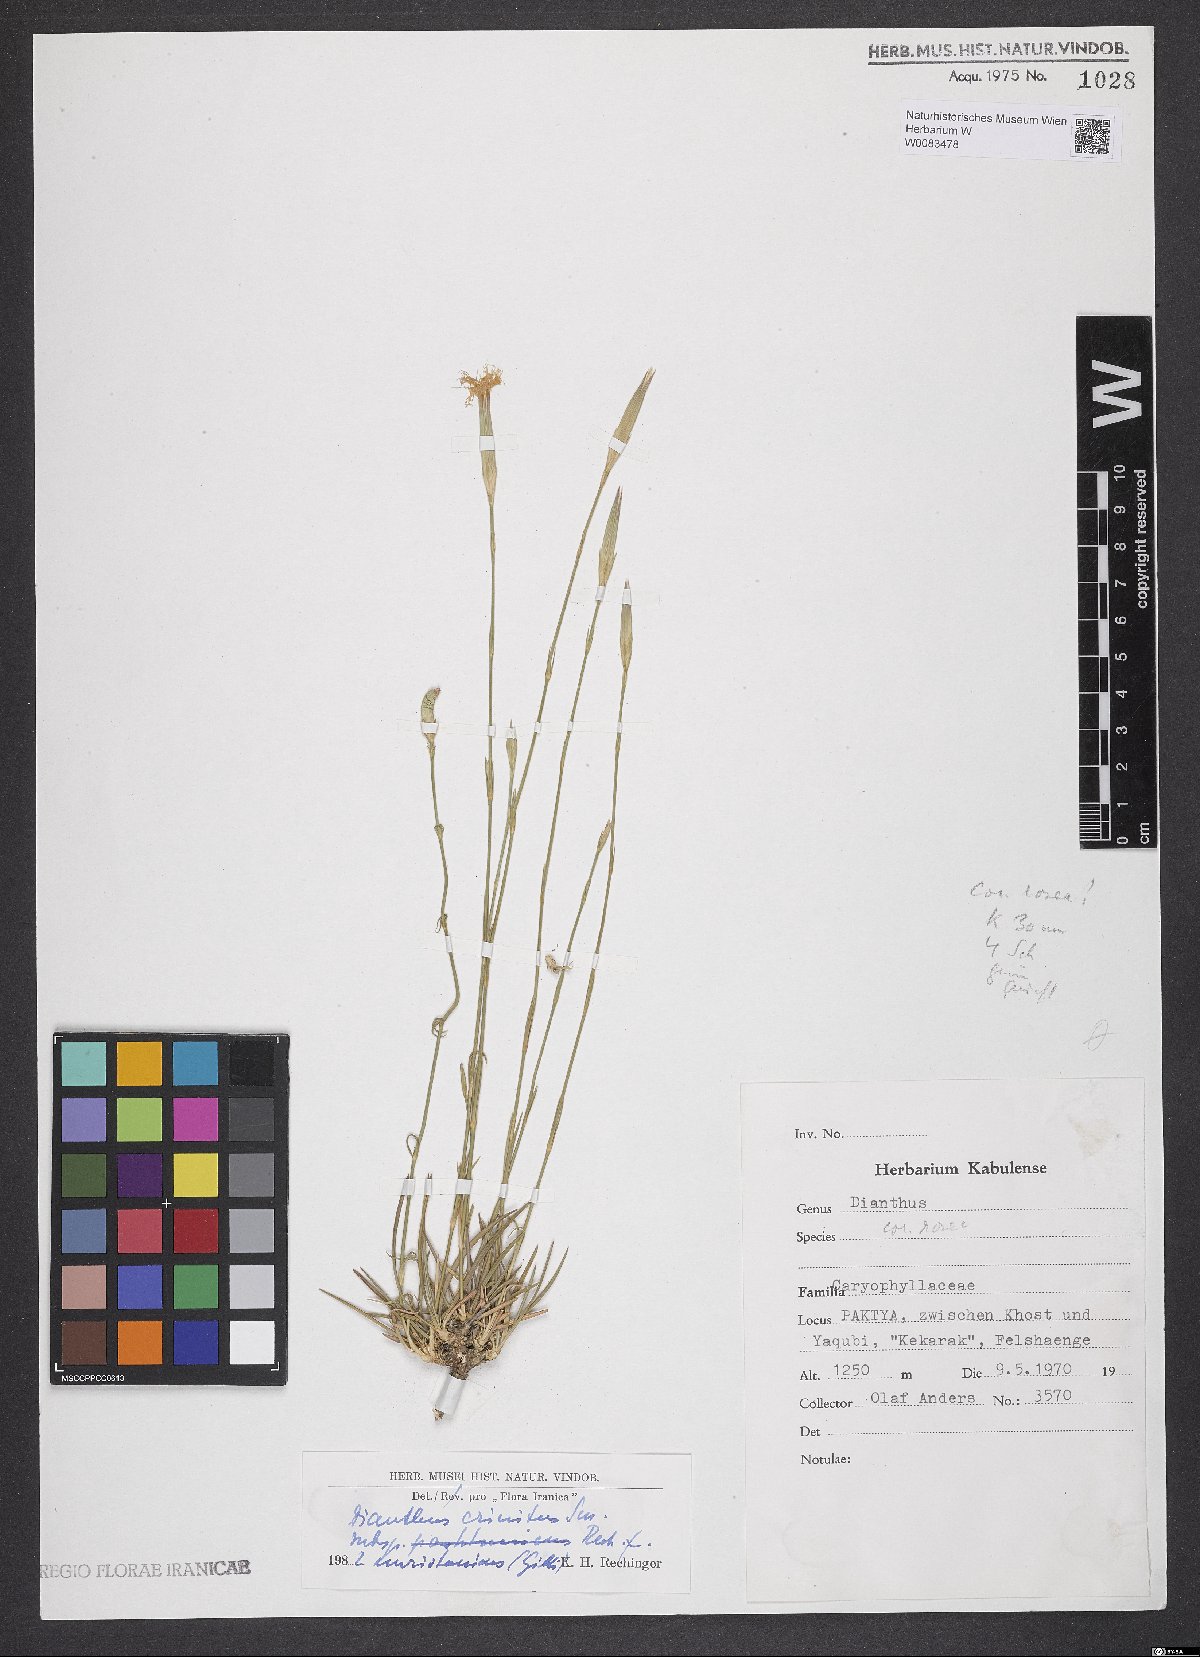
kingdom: Plantae
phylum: Tracheophyta
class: Magnoliopsida
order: Caryophyllales
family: Caryophyllaceae
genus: Dianthus
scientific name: Dianthus crinitus
